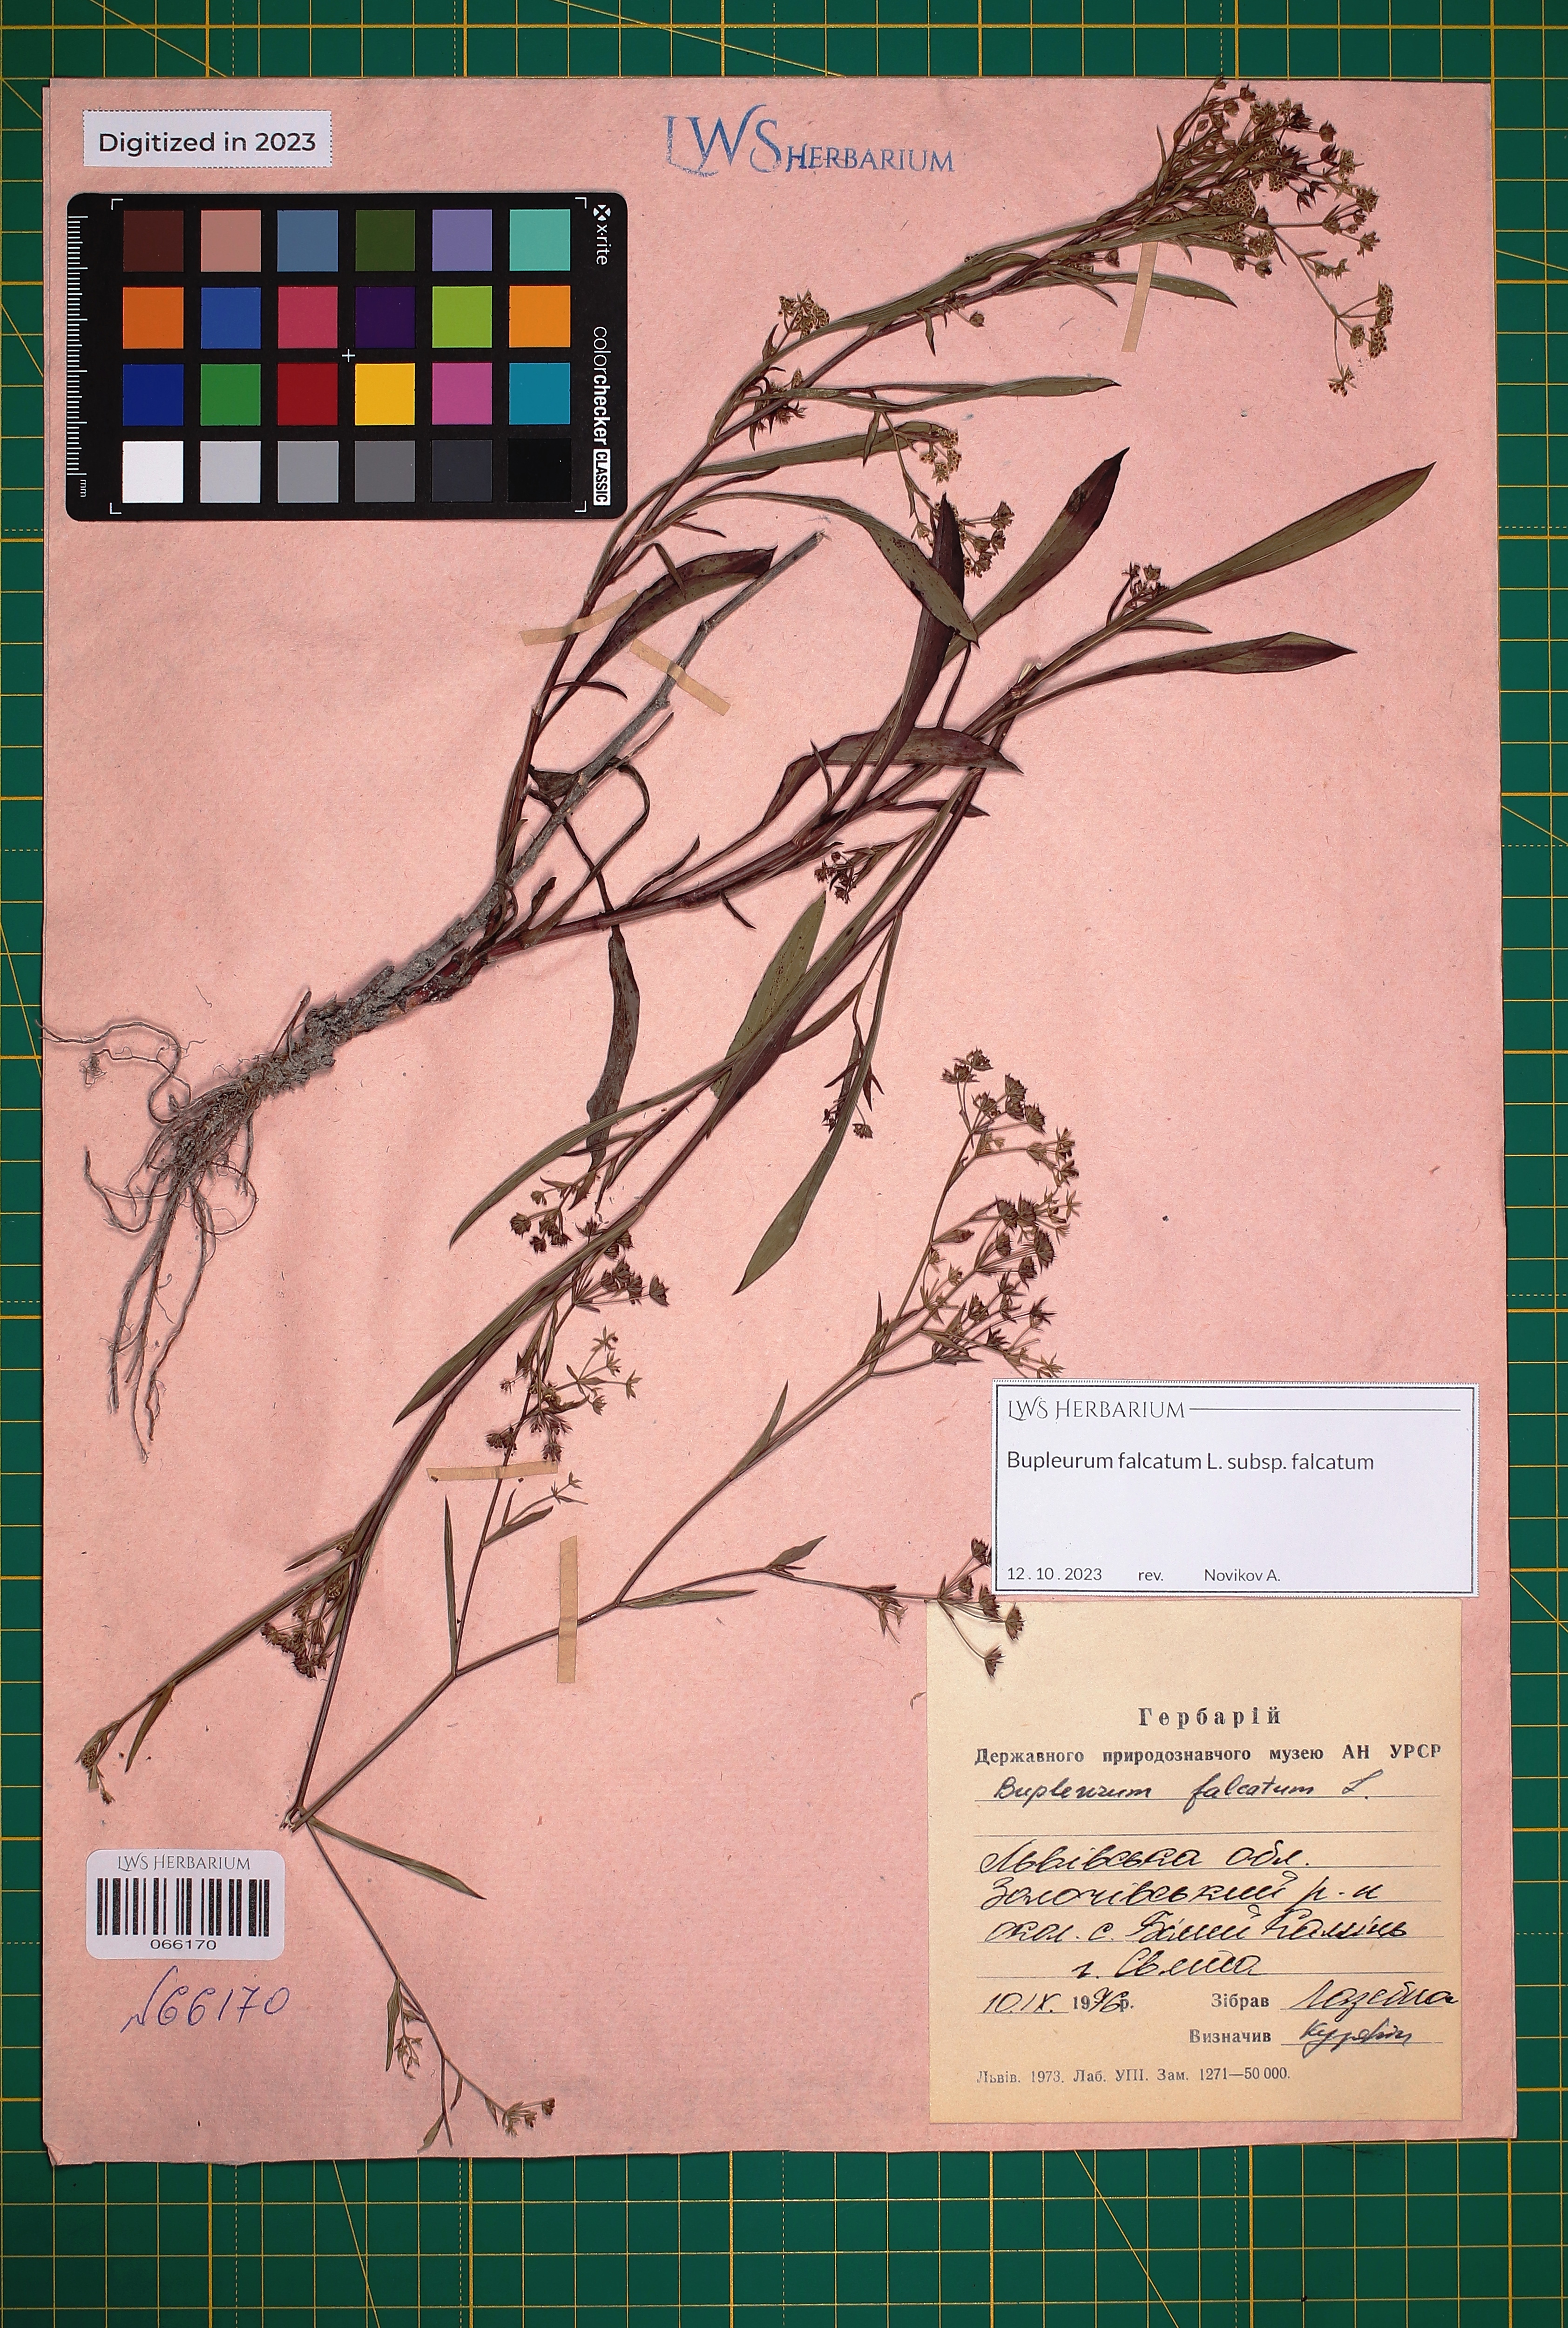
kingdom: Plantae
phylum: Tracheophyta
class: Magnoliopsida
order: Apiales
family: Apiaceae
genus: Bupleurum
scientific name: Bupleurum falcatum
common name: Sickle-leaved hare's-ear
